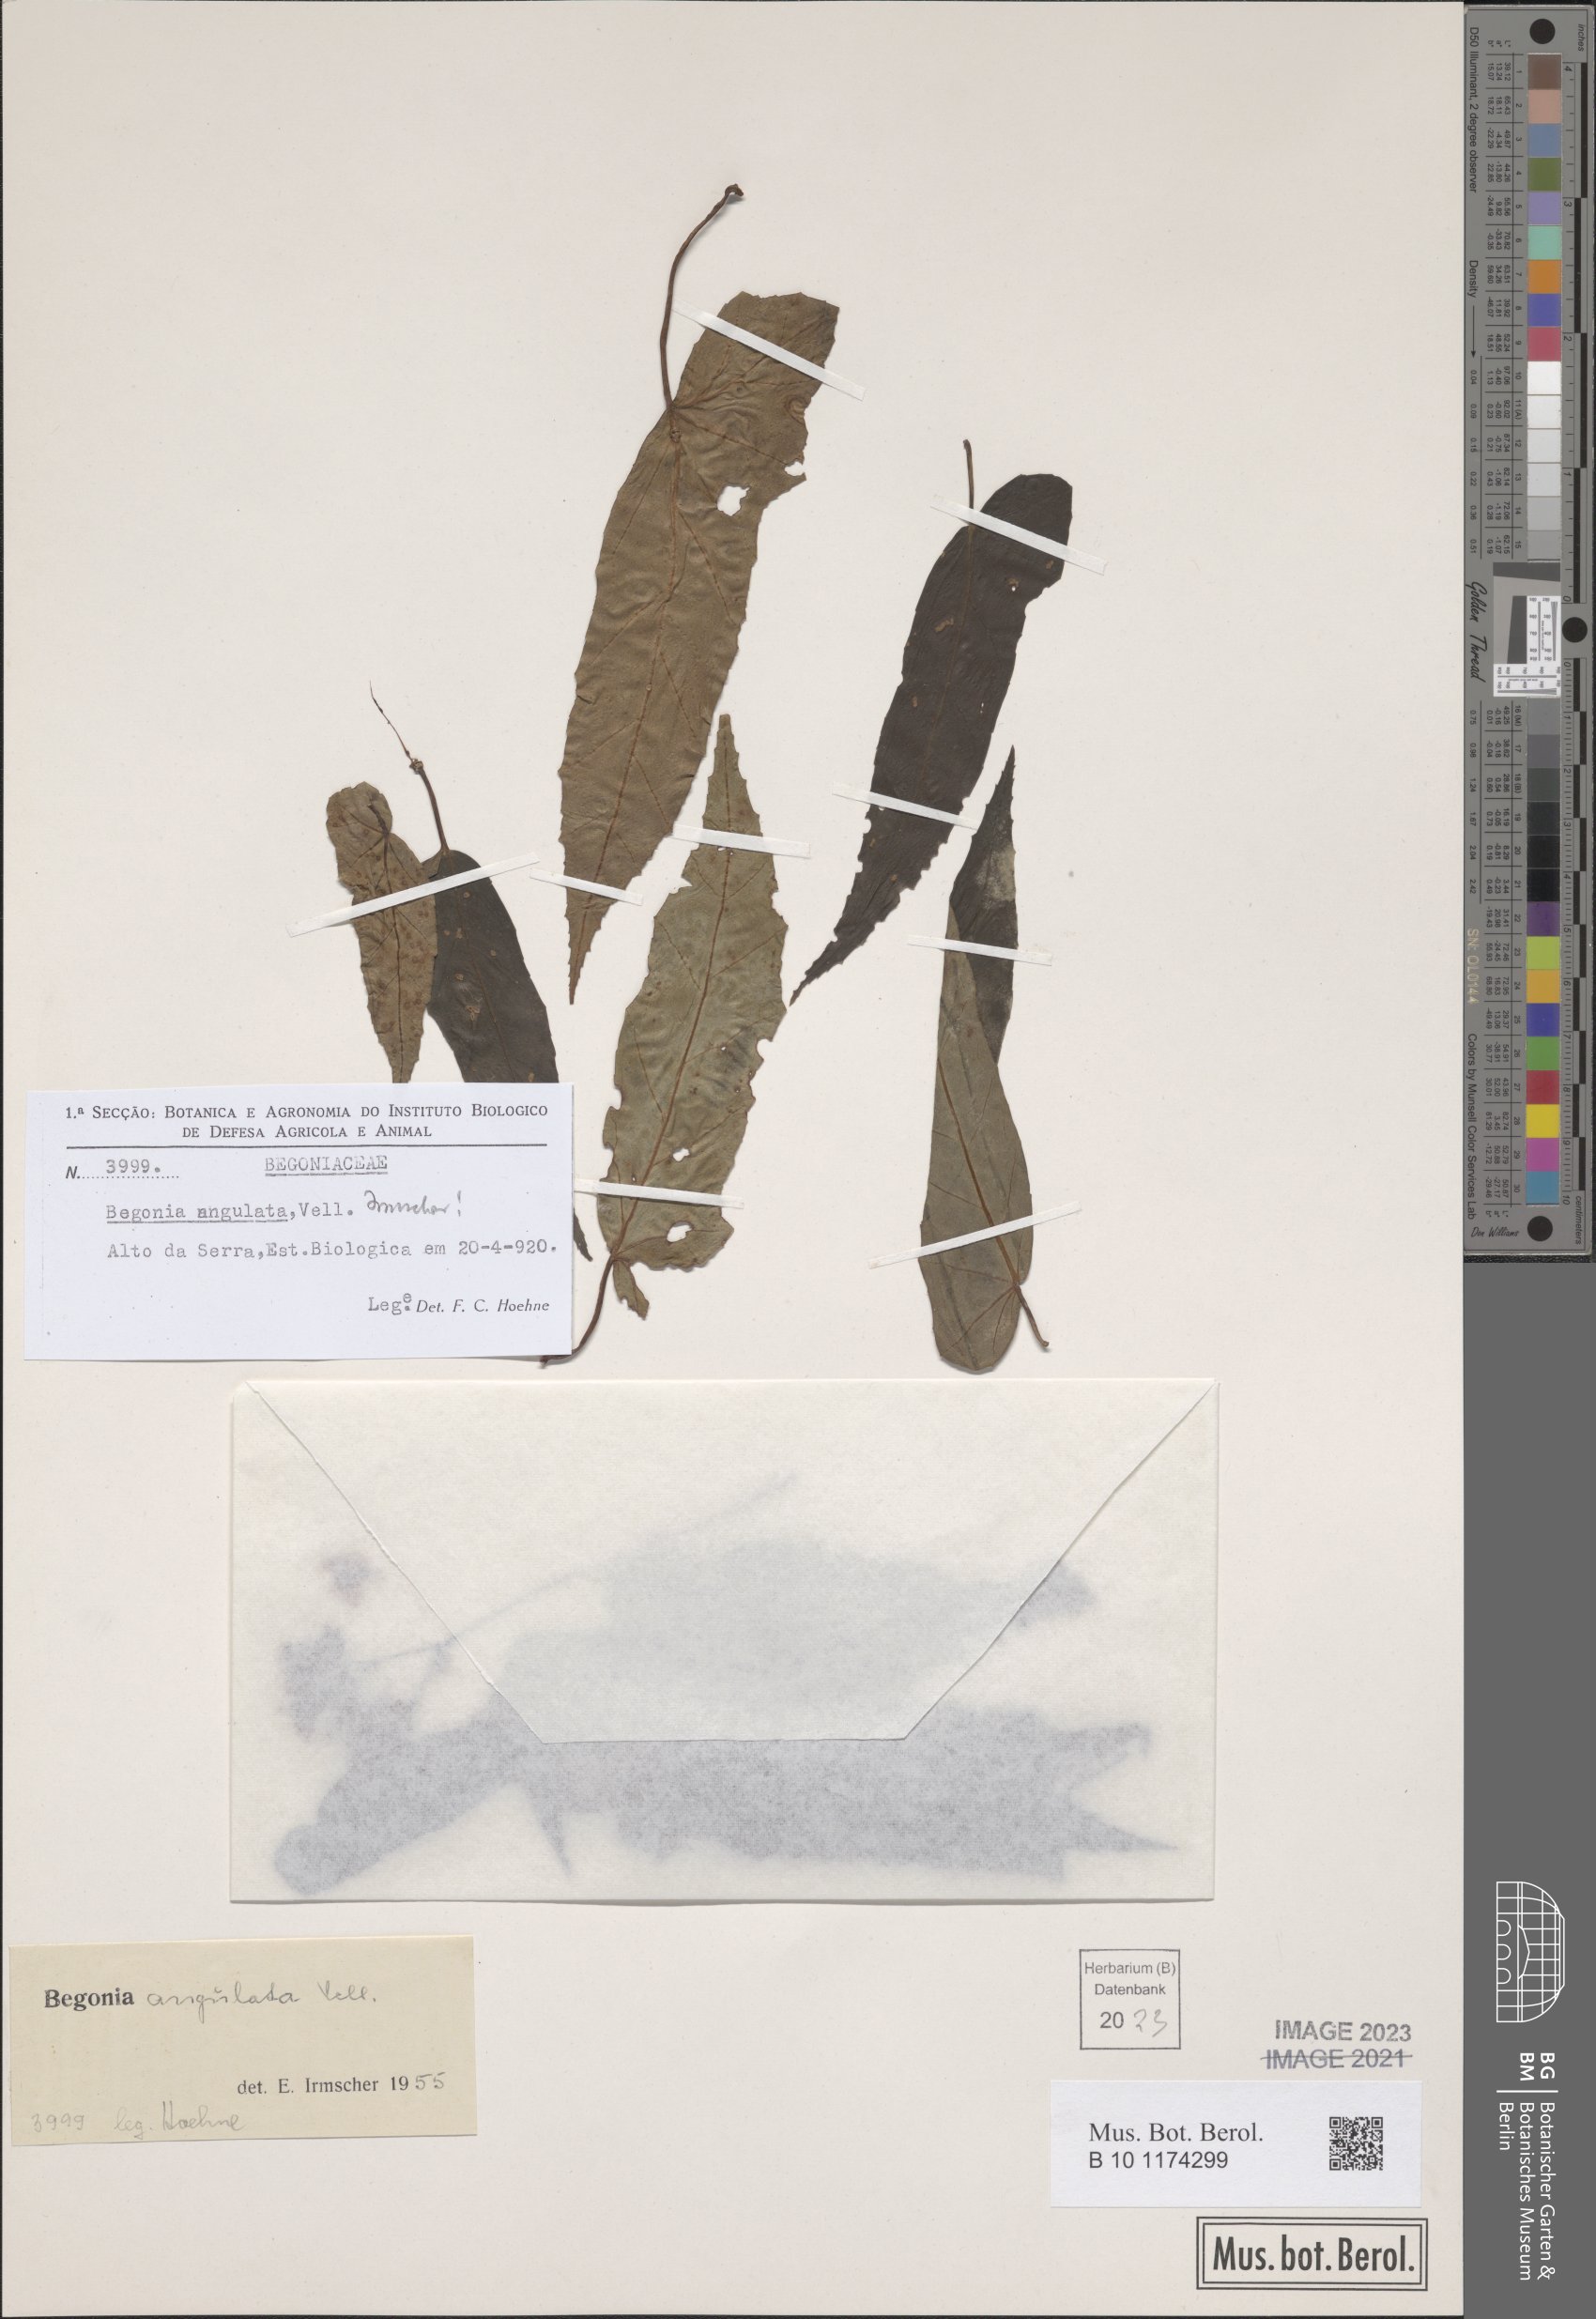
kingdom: Plantae
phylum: Tracheophyta
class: Magnoliopsida
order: Cucurbitales
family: Begoniaceae
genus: Begonia
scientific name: Begonia angulata
